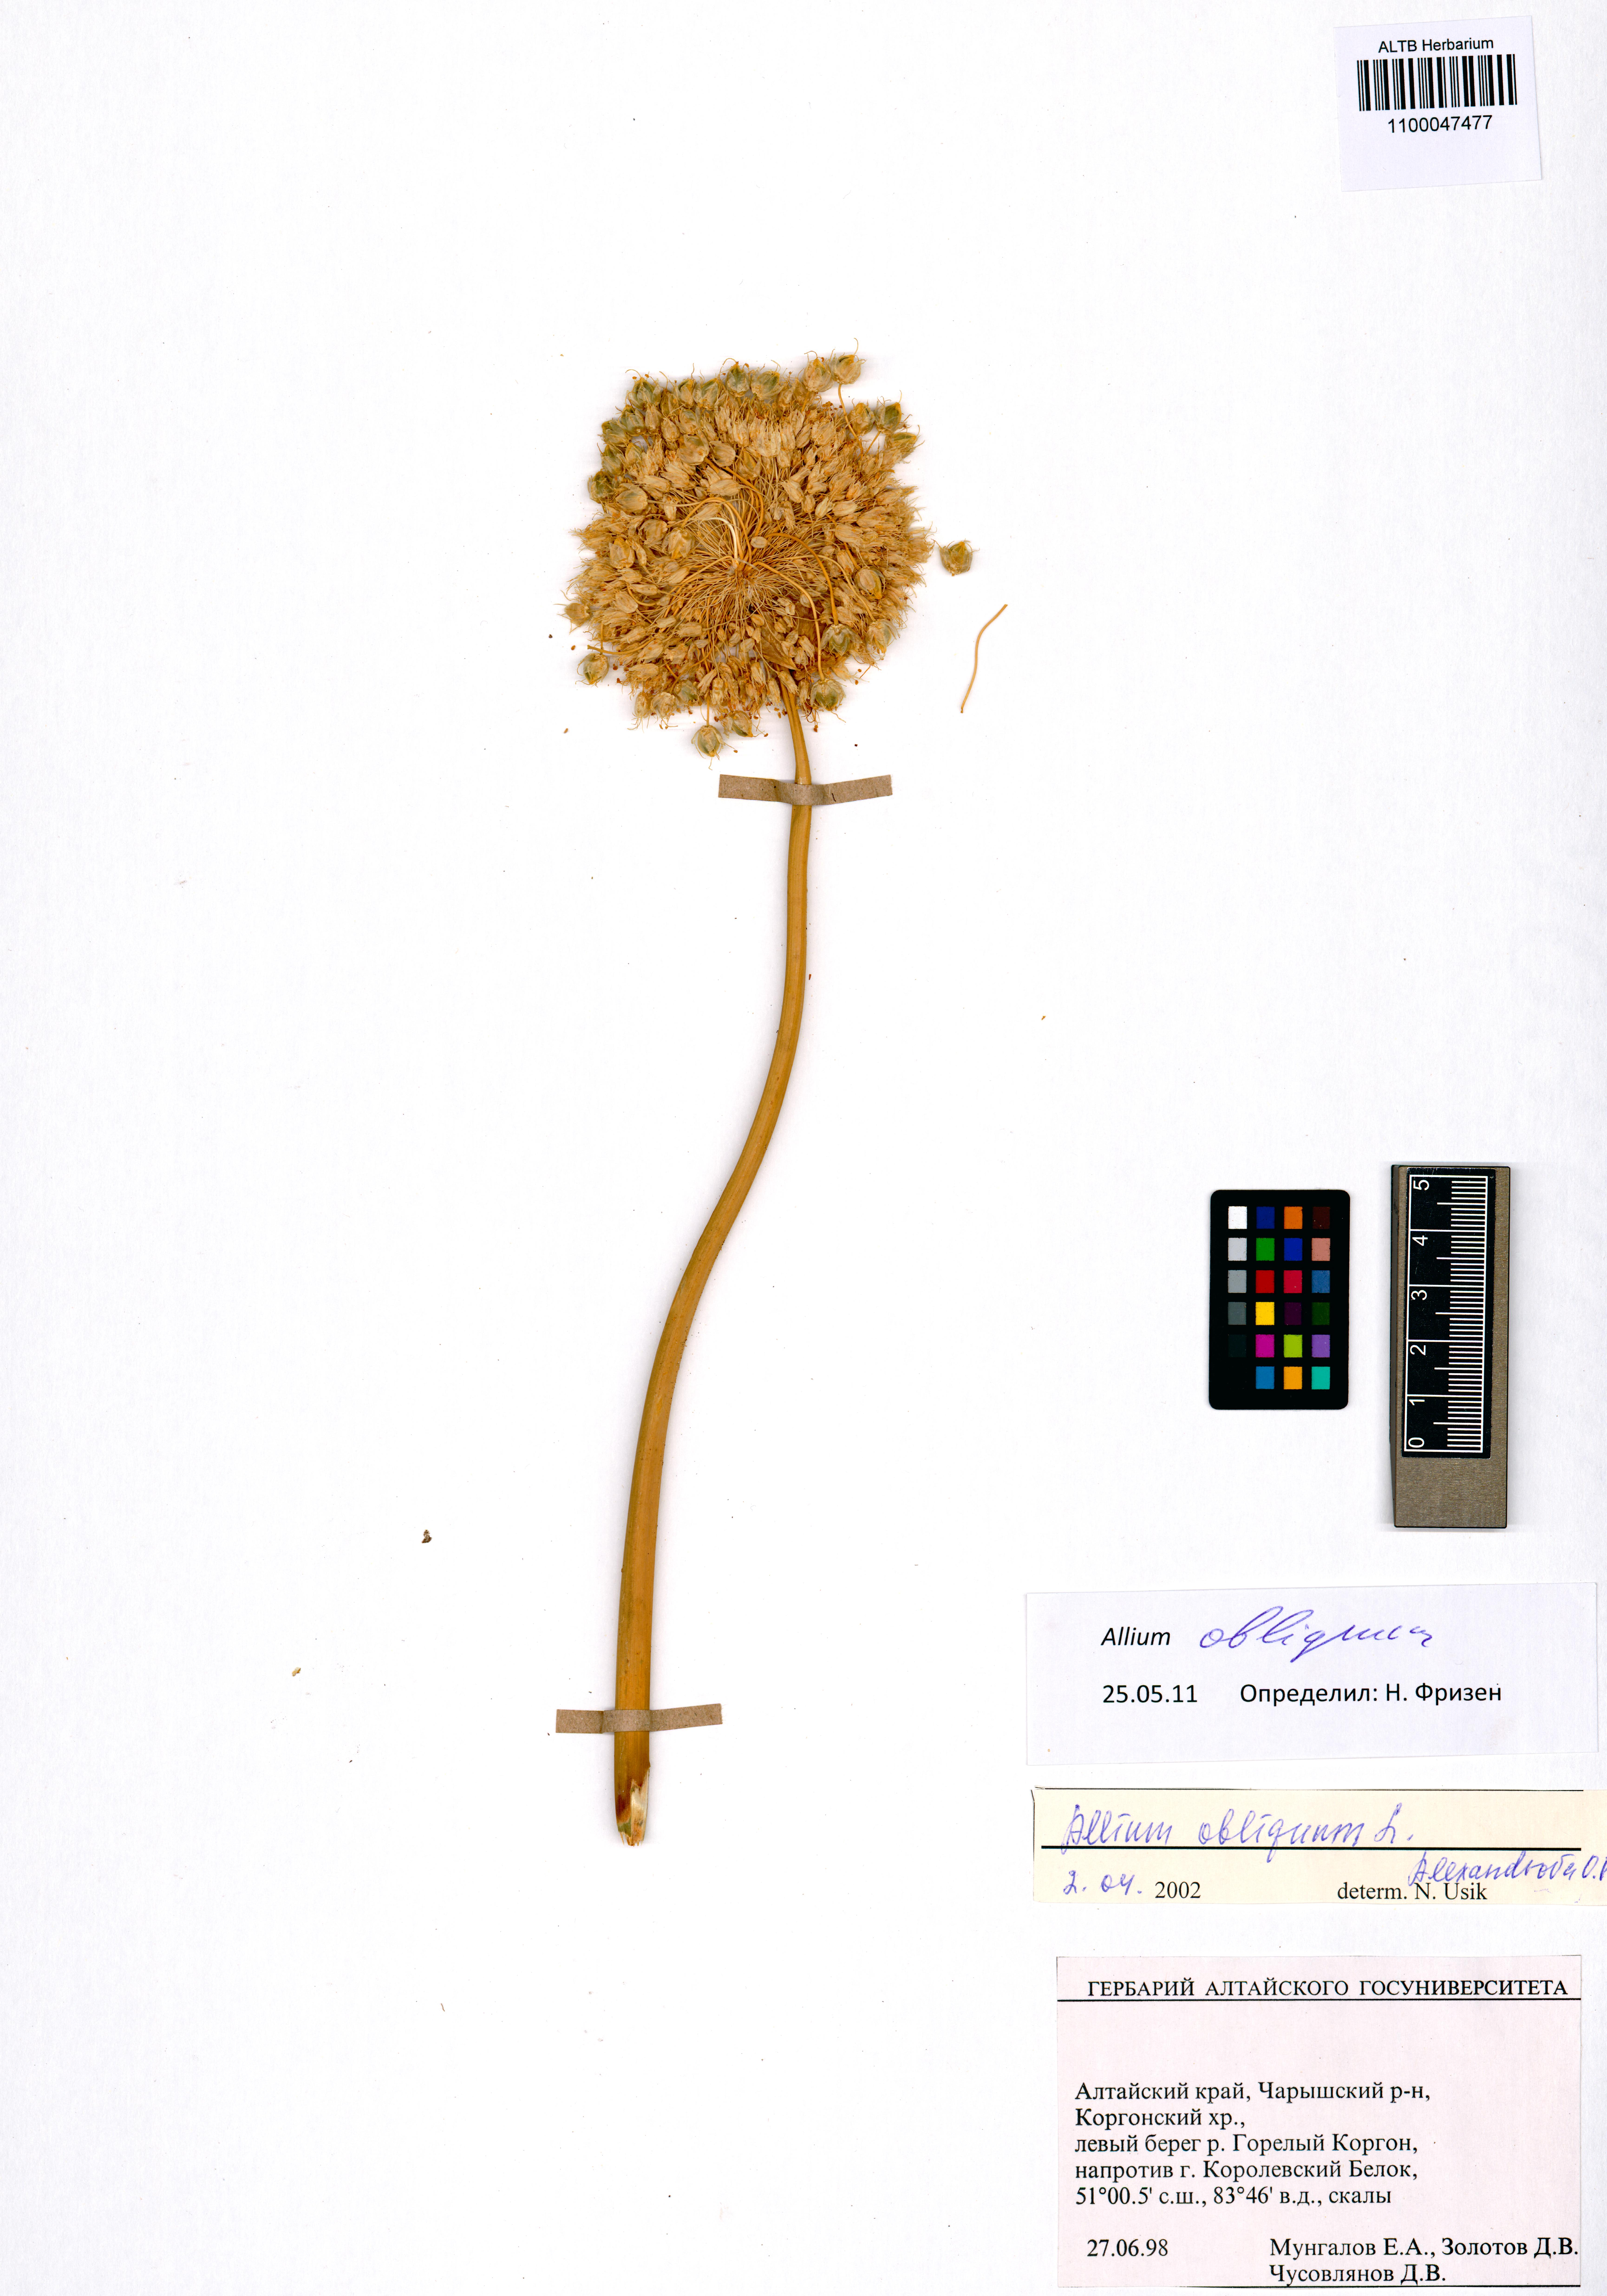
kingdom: Plantae
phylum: Tracheophyta
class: Liliopsida
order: Asparagales
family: Amaryllidaceae
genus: Allium
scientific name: Allium obliquum
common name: Oblique onion
